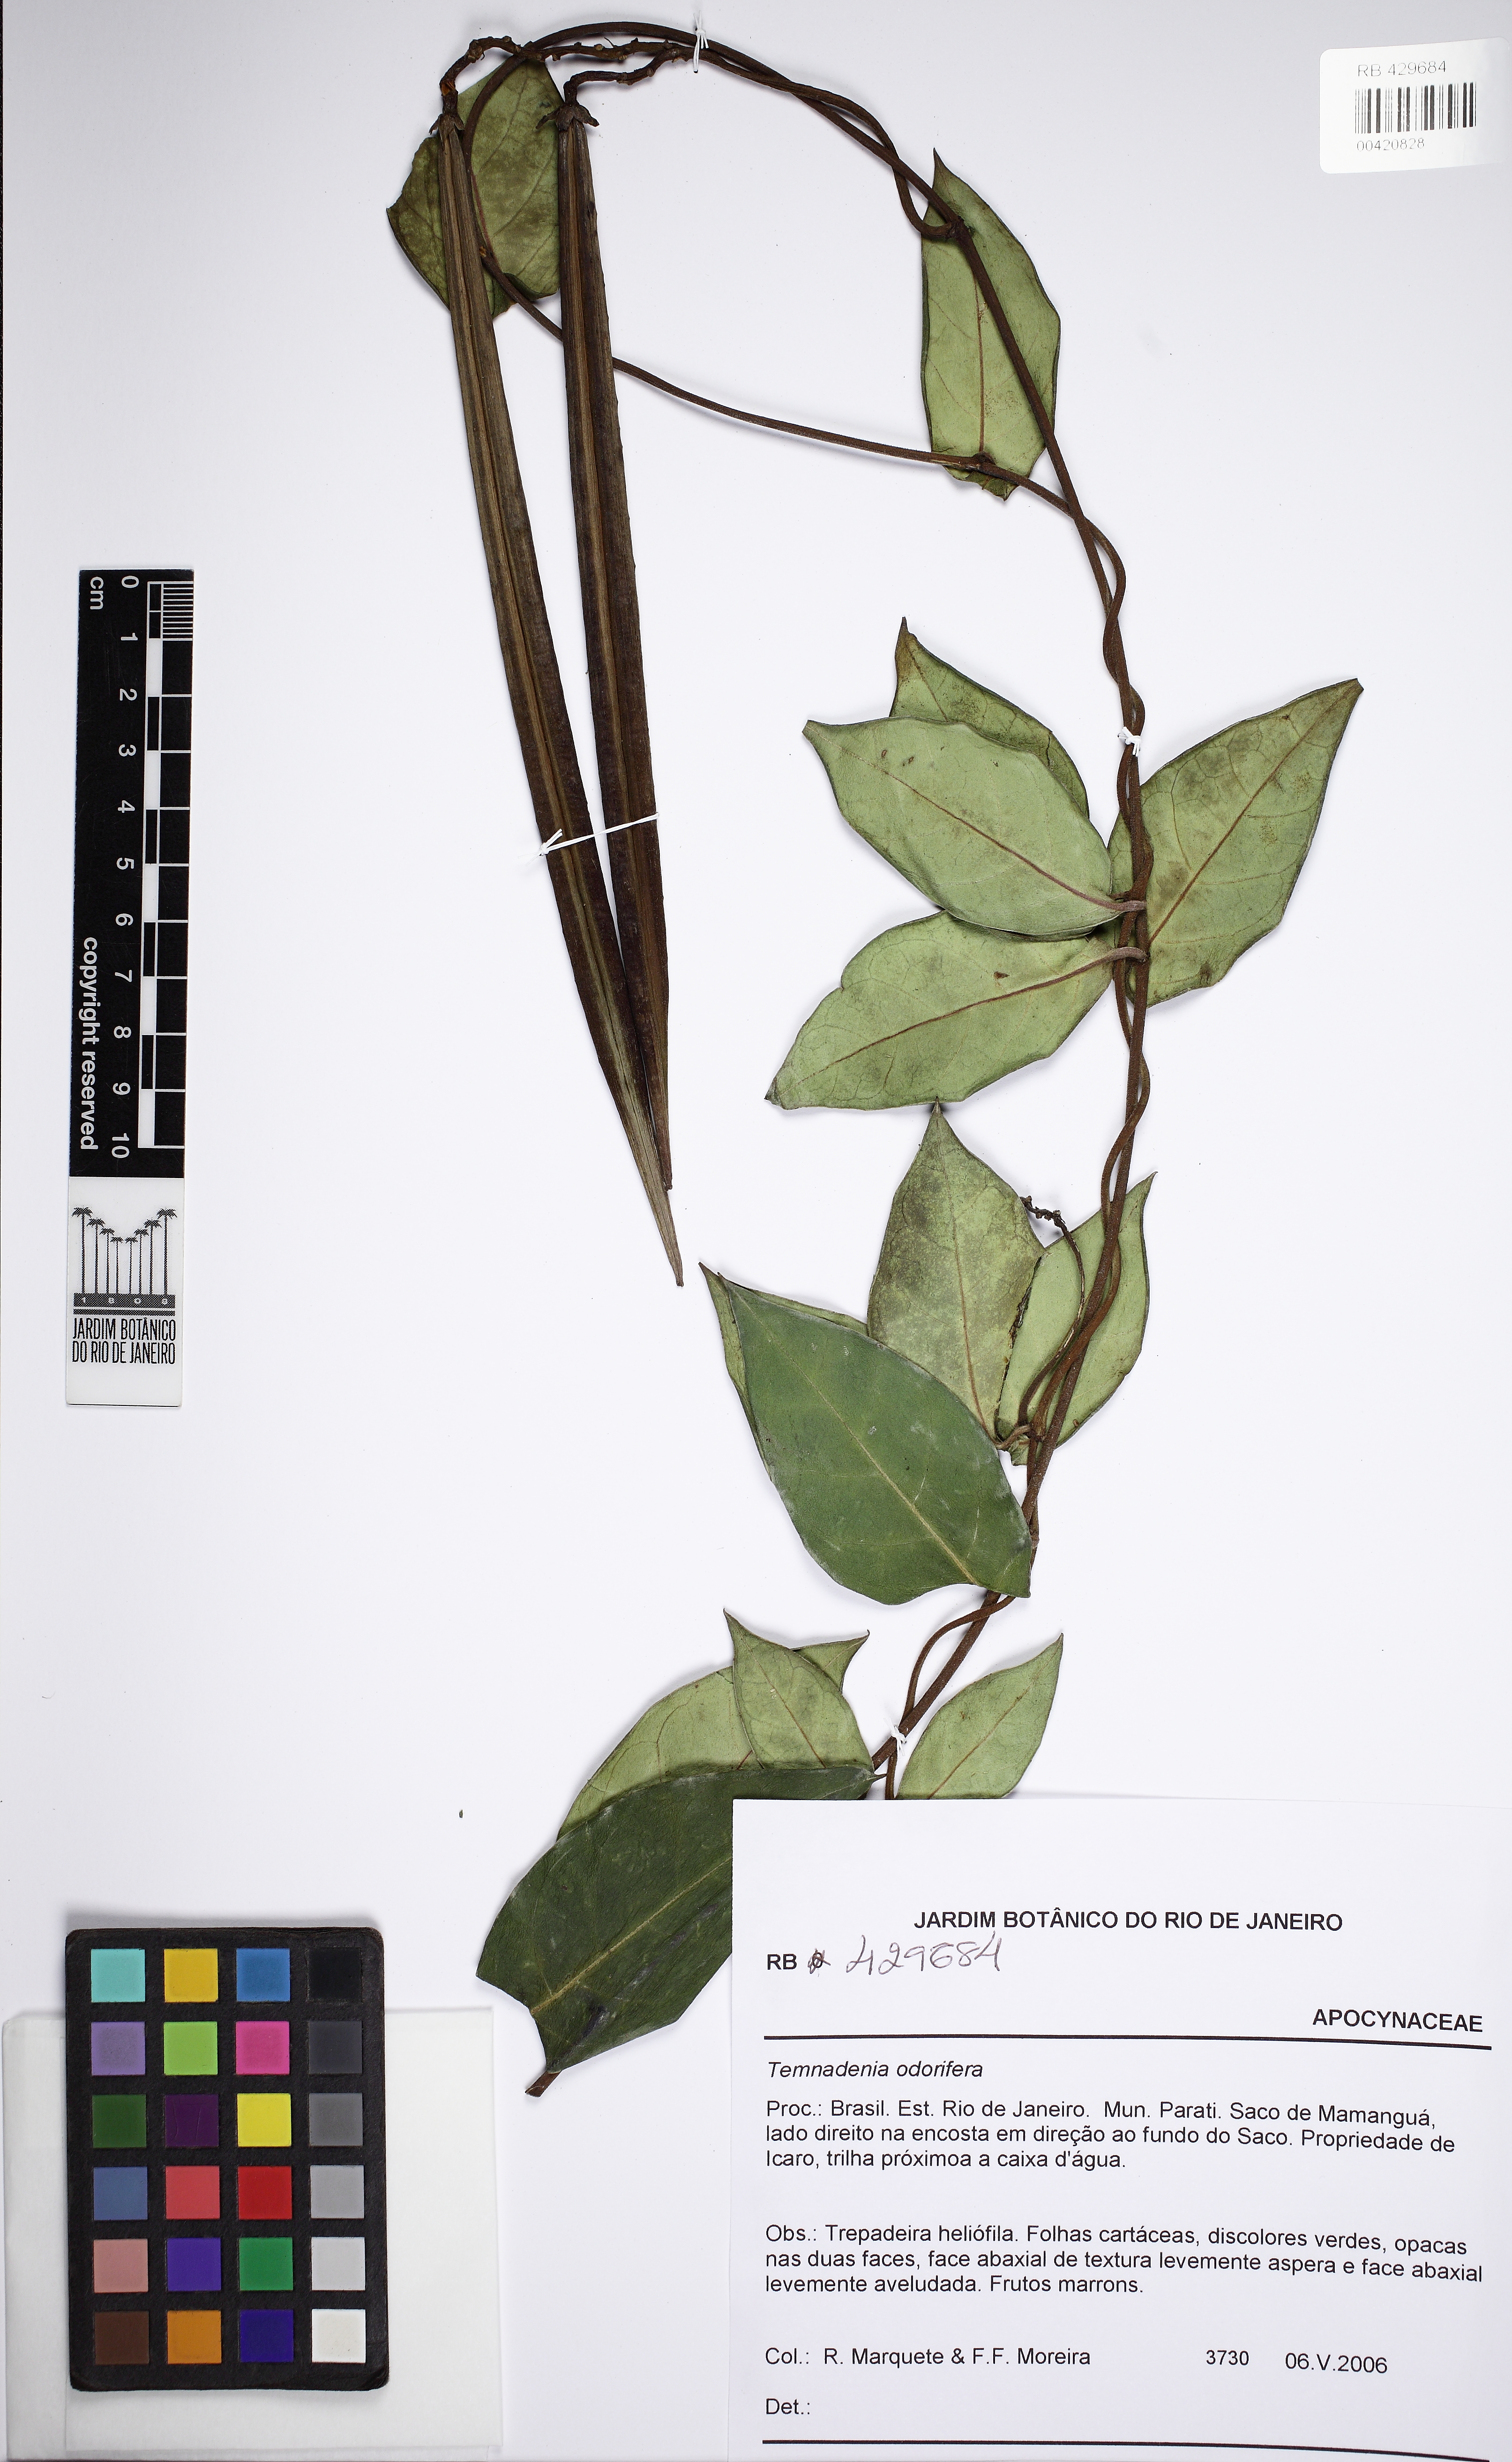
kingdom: Plantae
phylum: Tracheophyta
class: Magnoliopsida
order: Gentianales
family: Apocynaceae
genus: Temnadenia
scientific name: Temnadenia odorifera
